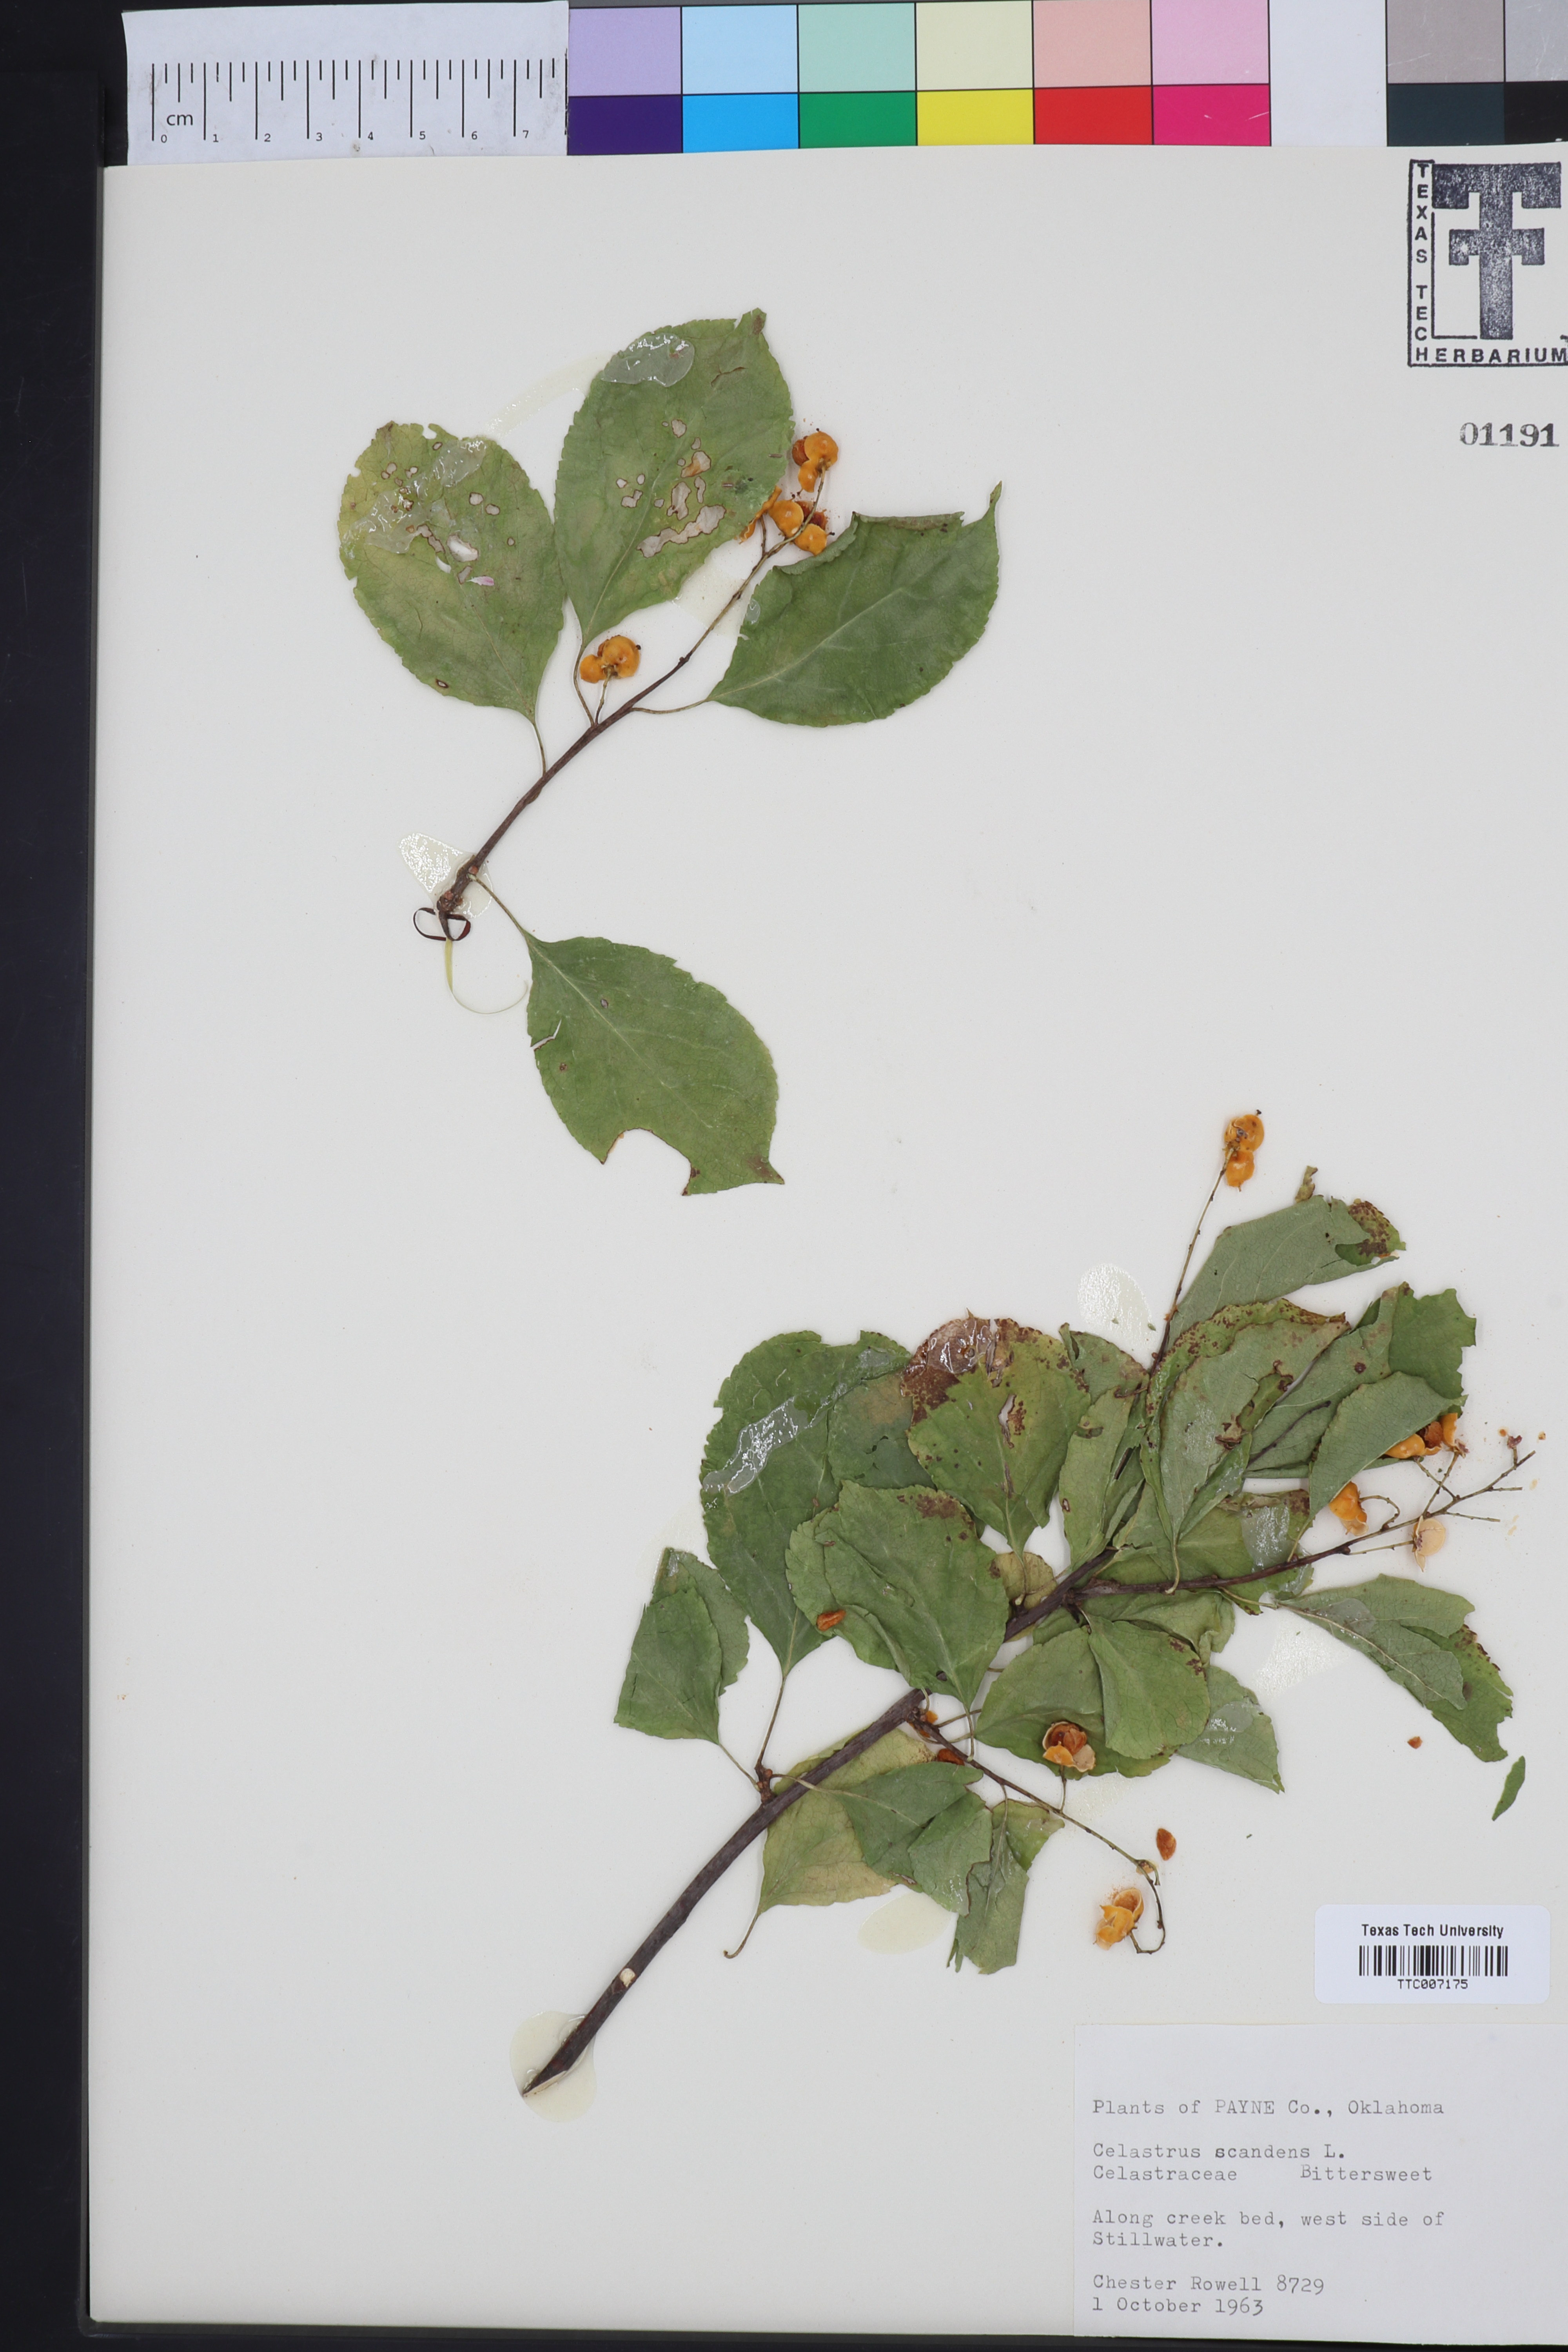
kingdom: Plantae
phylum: Tracheophyta
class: Magnoliopsida
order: Celastrales
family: Celastraceae
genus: Celastrus
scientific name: Celastrus scandens
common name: American bittersweet
